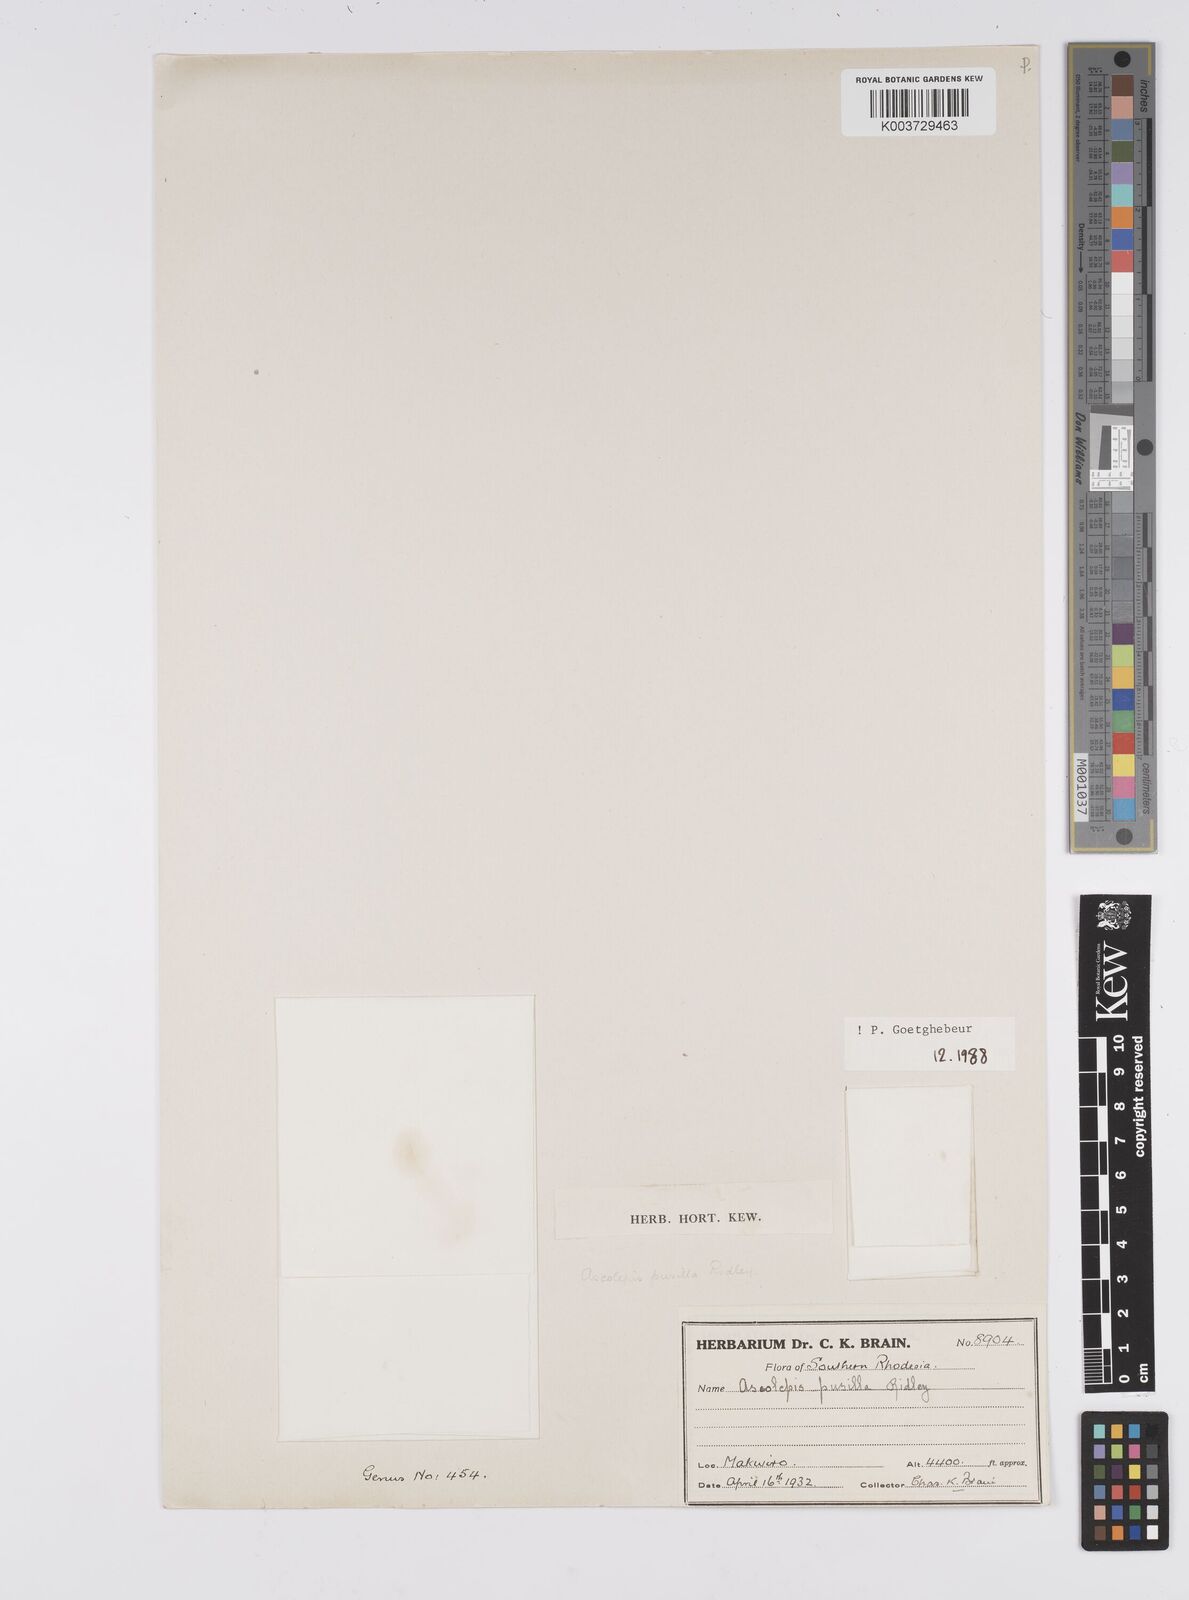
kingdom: Plantae
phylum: Tracheophyta
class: Liliopsida
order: Poales
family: Cyperaceae
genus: Cyperus
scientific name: Cyperus
